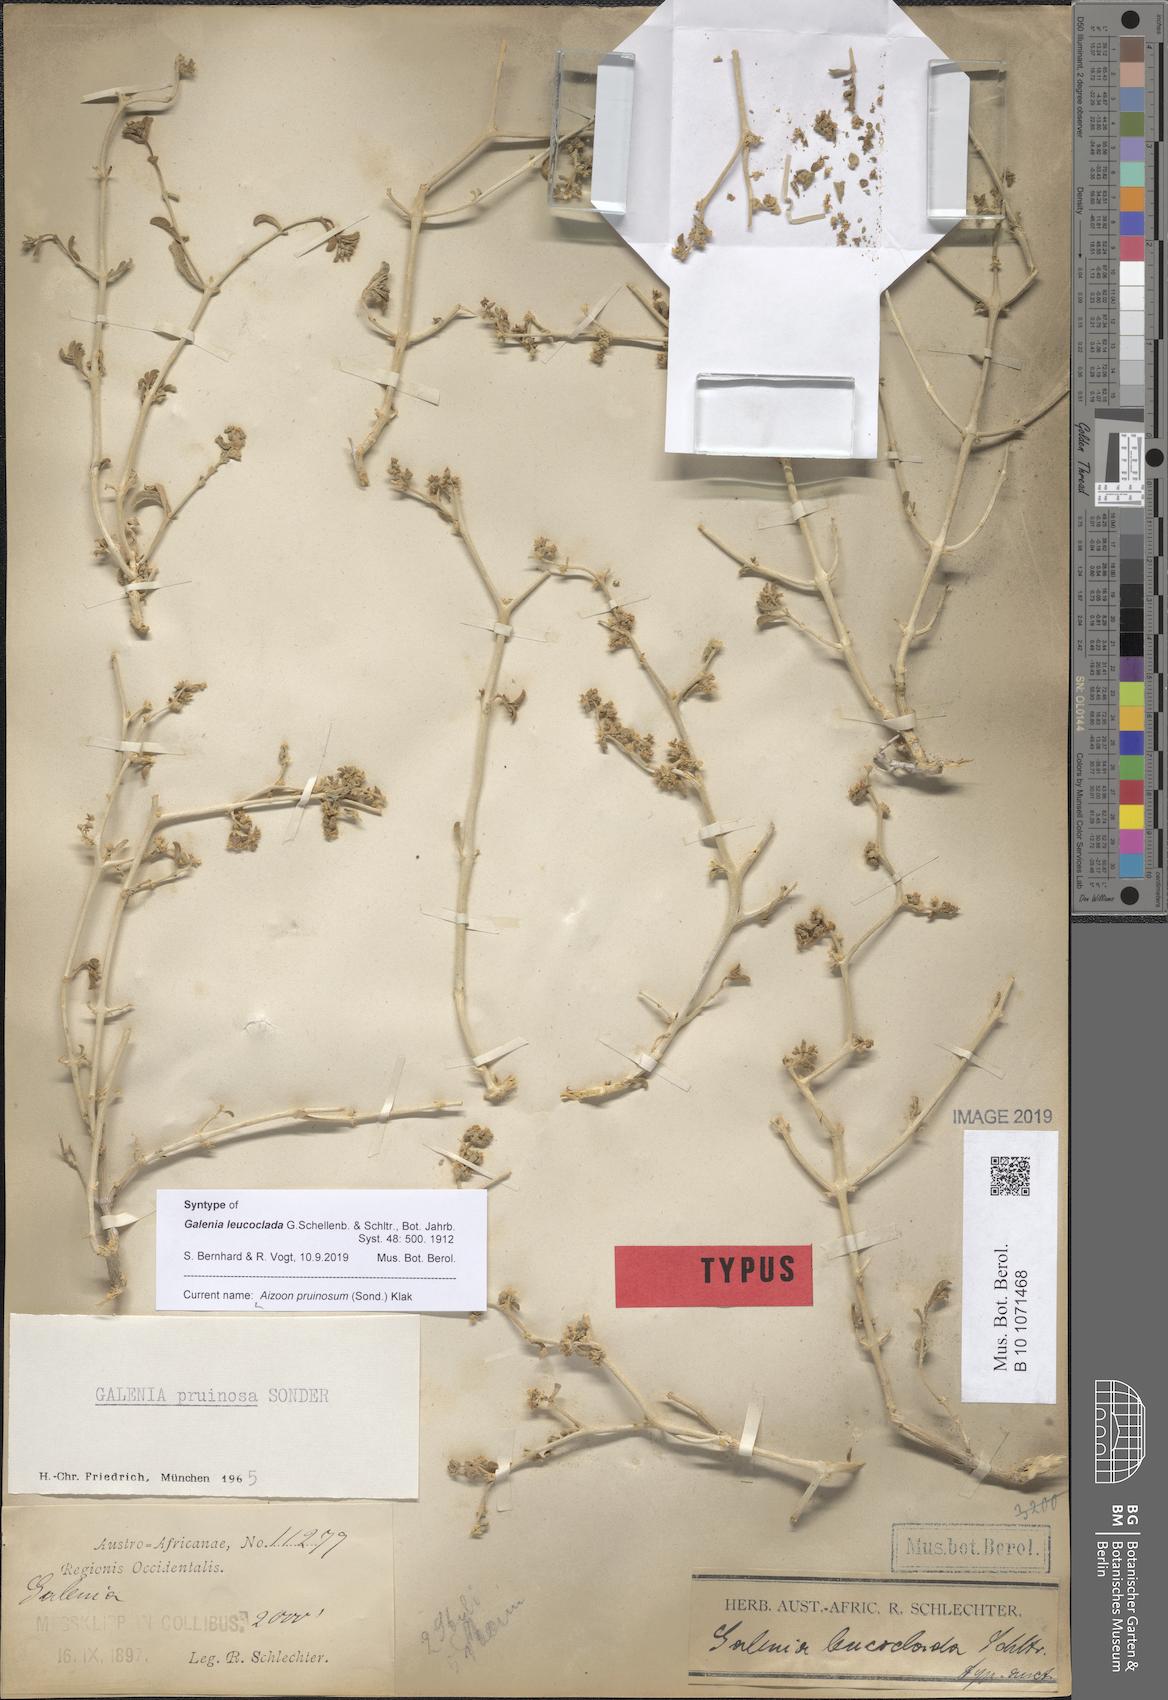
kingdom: Plantae
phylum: Tracheophyta
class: Magnoliopsida
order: Caryophyllales
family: Aizoaceae
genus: Aizoon
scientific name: Aizoon pruinosum
